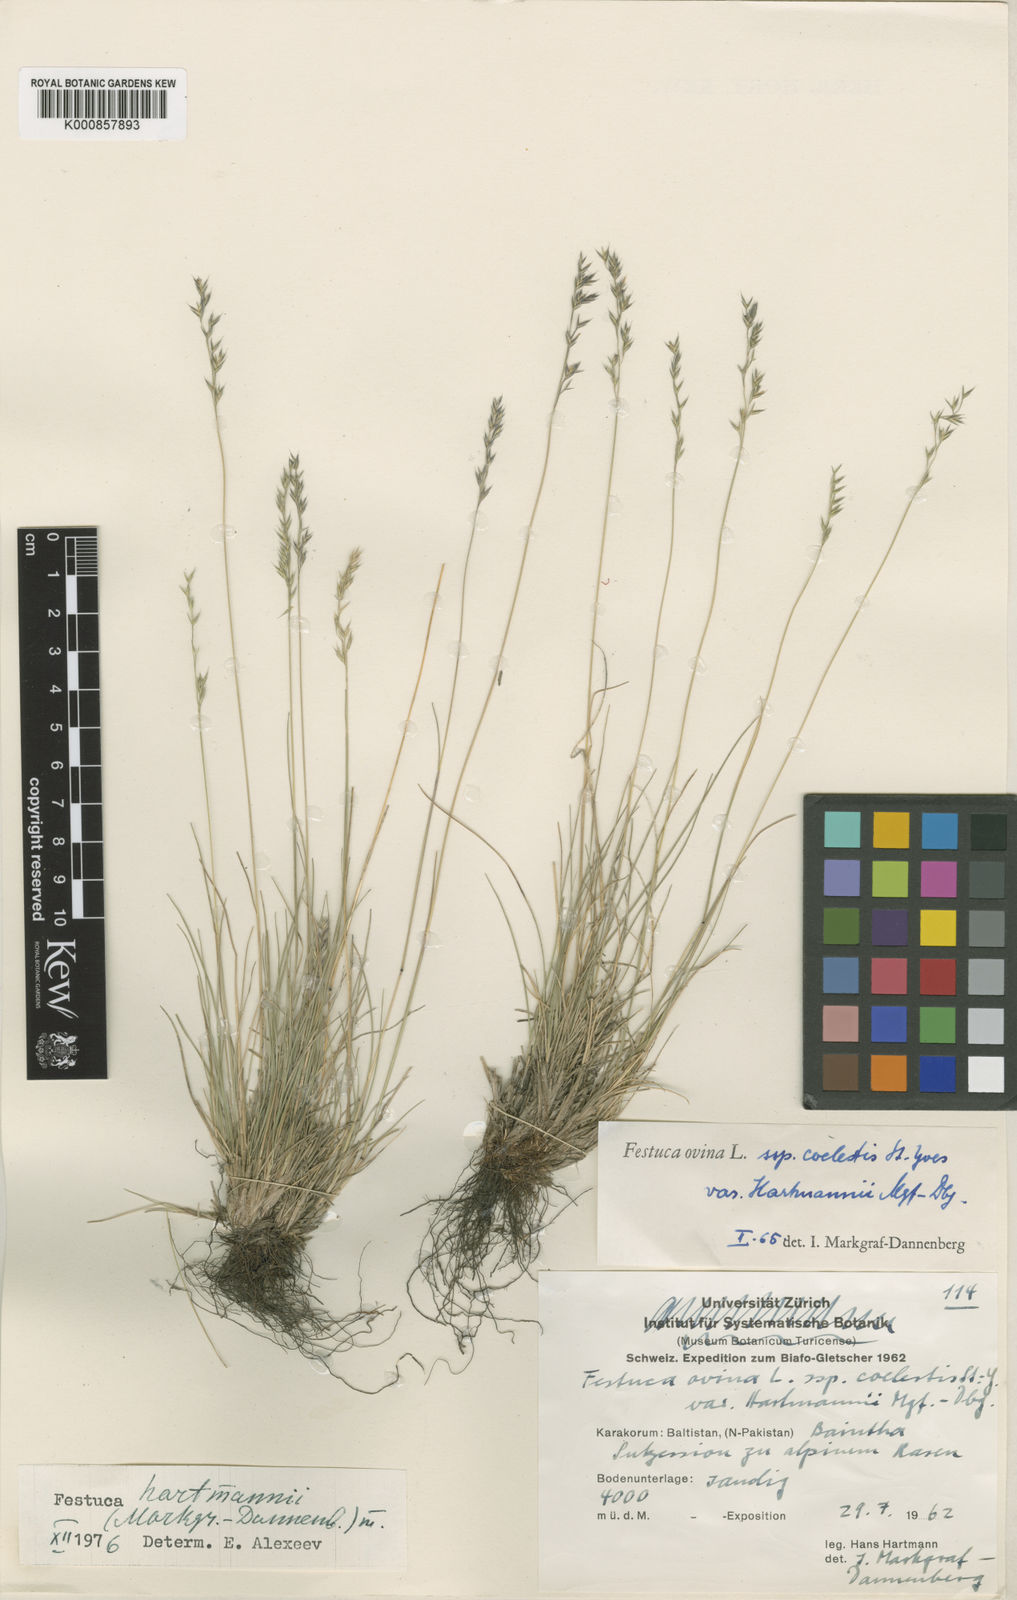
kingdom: Plantae
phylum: Tracheophyta
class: Liliopsida
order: Poales
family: Poaceae
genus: Festuca
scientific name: Festuca hartmannii
